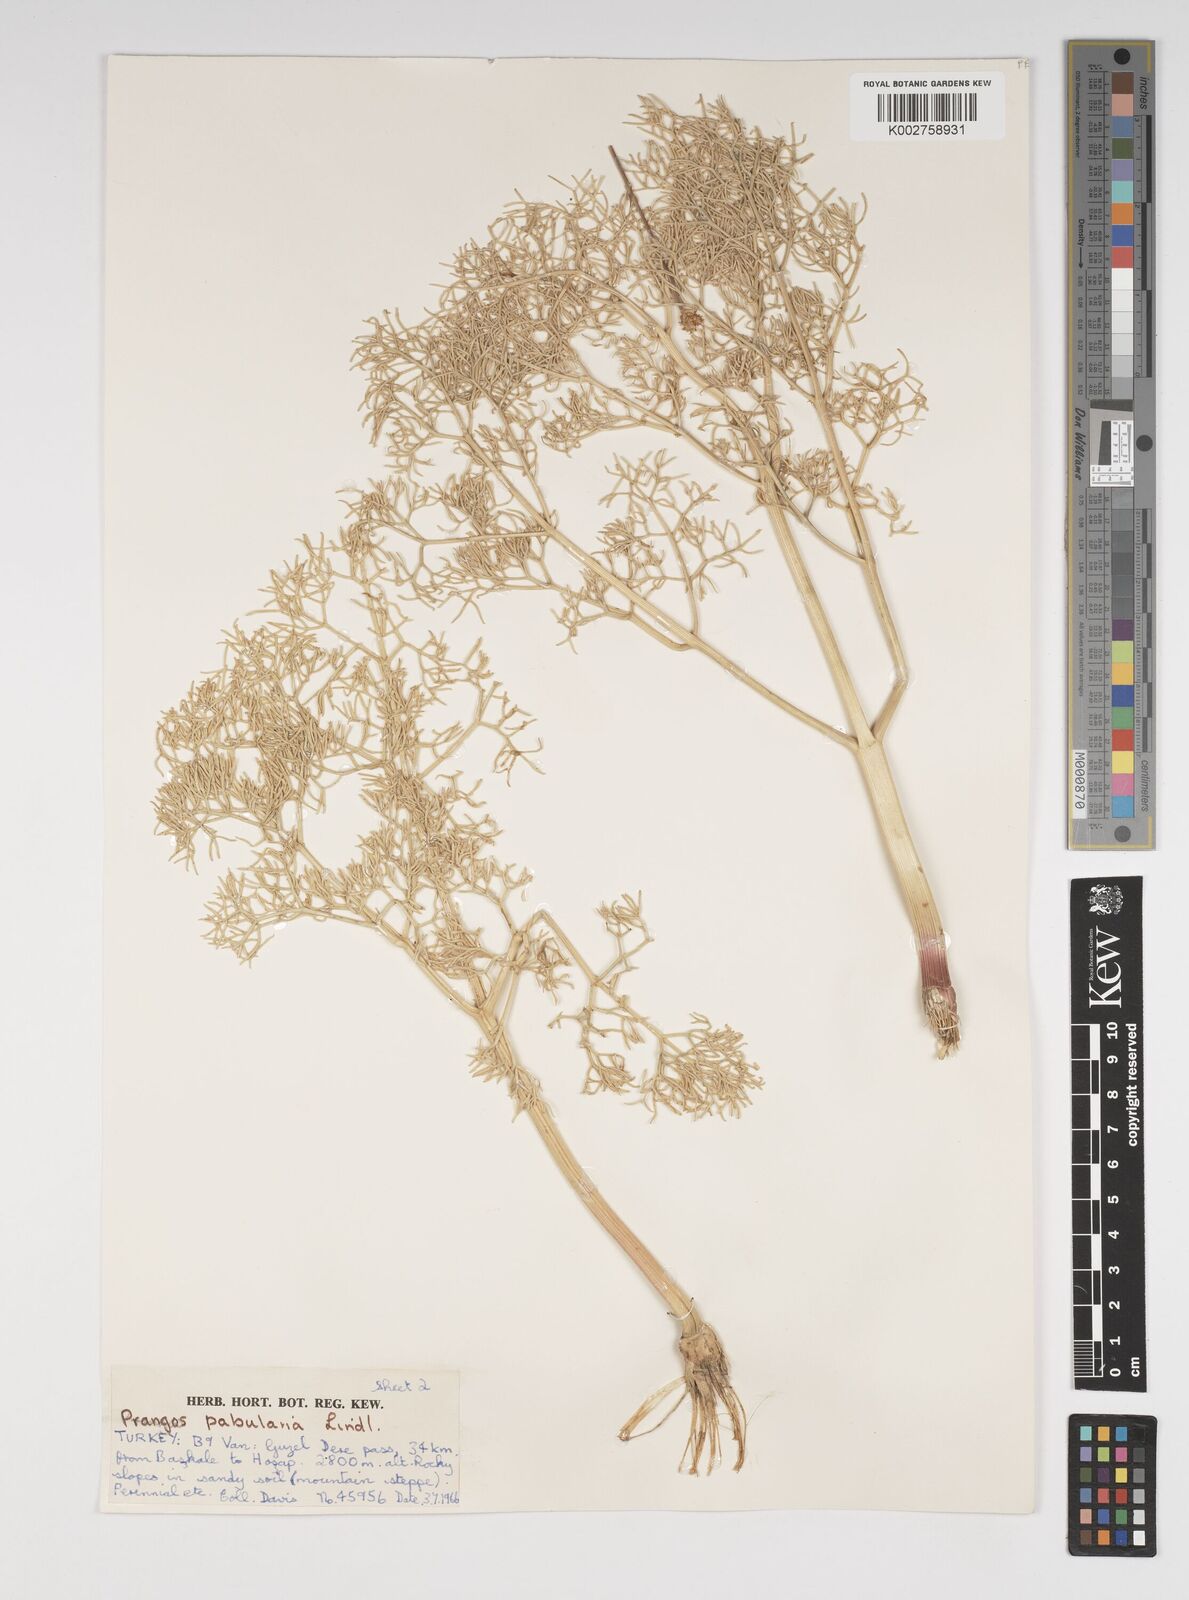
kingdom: Plantae
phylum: Tracheophyta
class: Magnoliopsida
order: Apiales
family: Apiaceae
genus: Prangos
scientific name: Prangos pabularia
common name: Yugan
